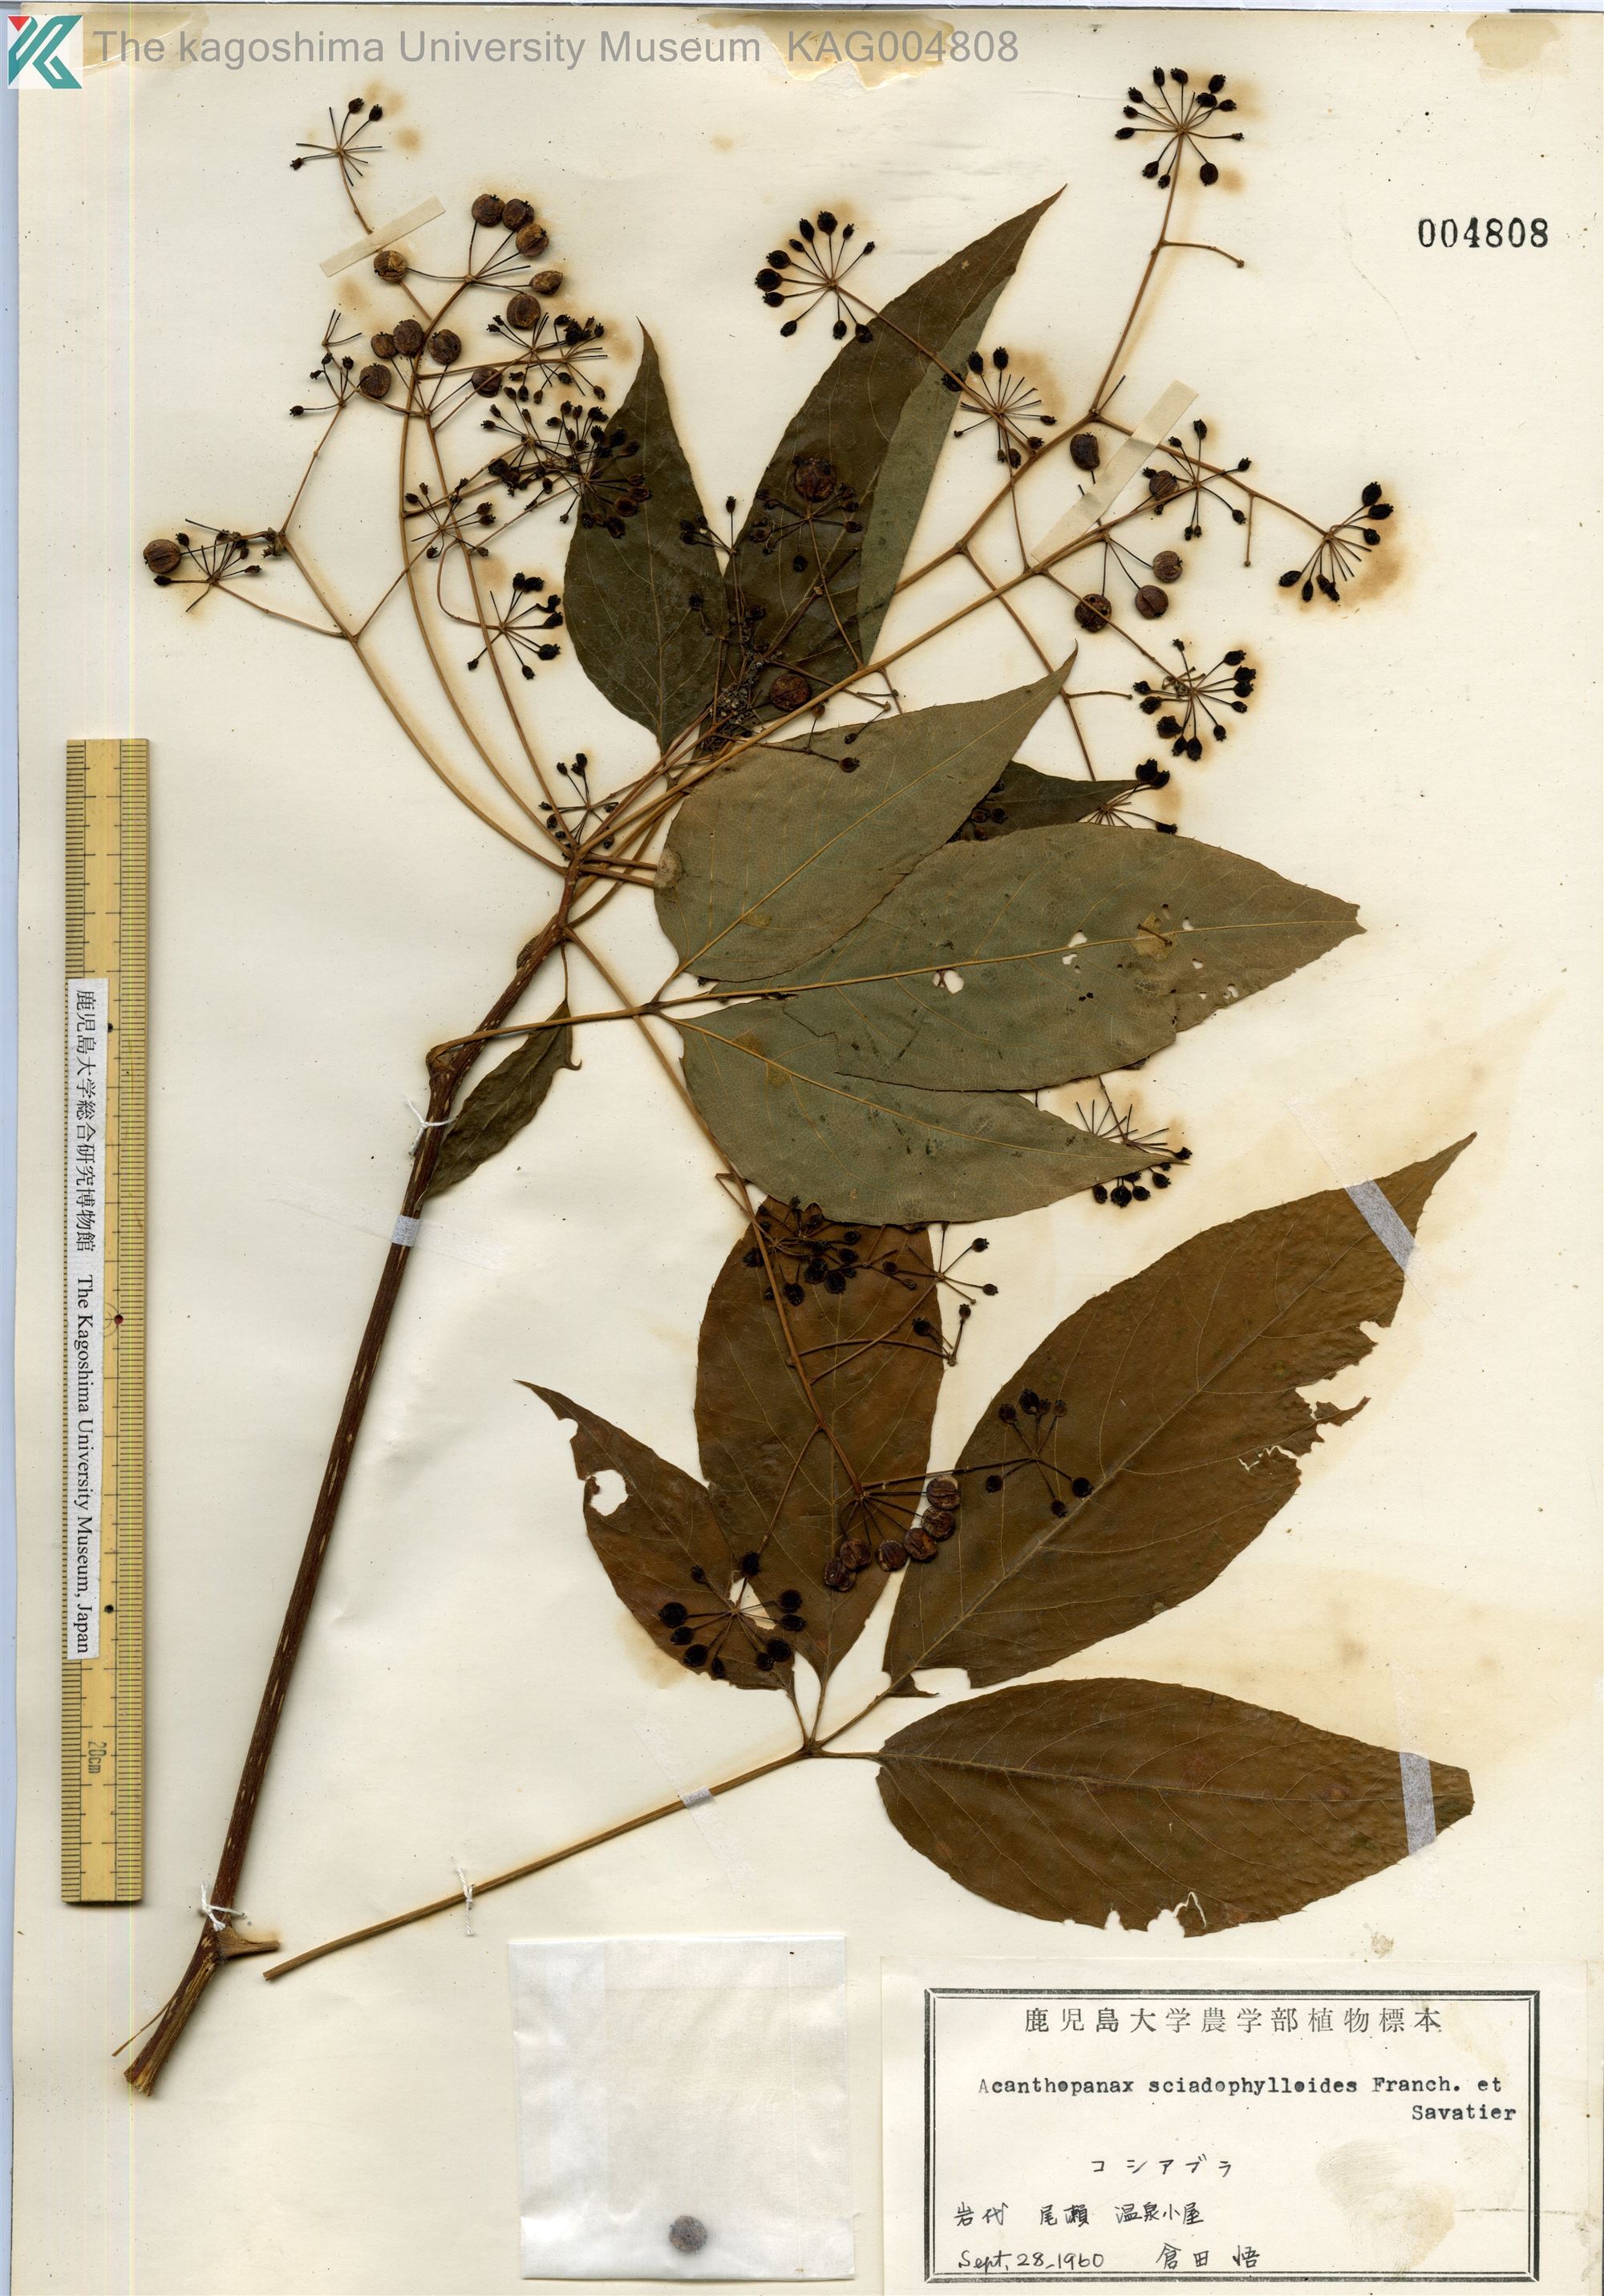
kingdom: Plantae
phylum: Tracheophyta
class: Magnoliopsida
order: Apiales
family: Araliaceae
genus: Chengiopanax
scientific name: Chengiopanax sciadophylloides
